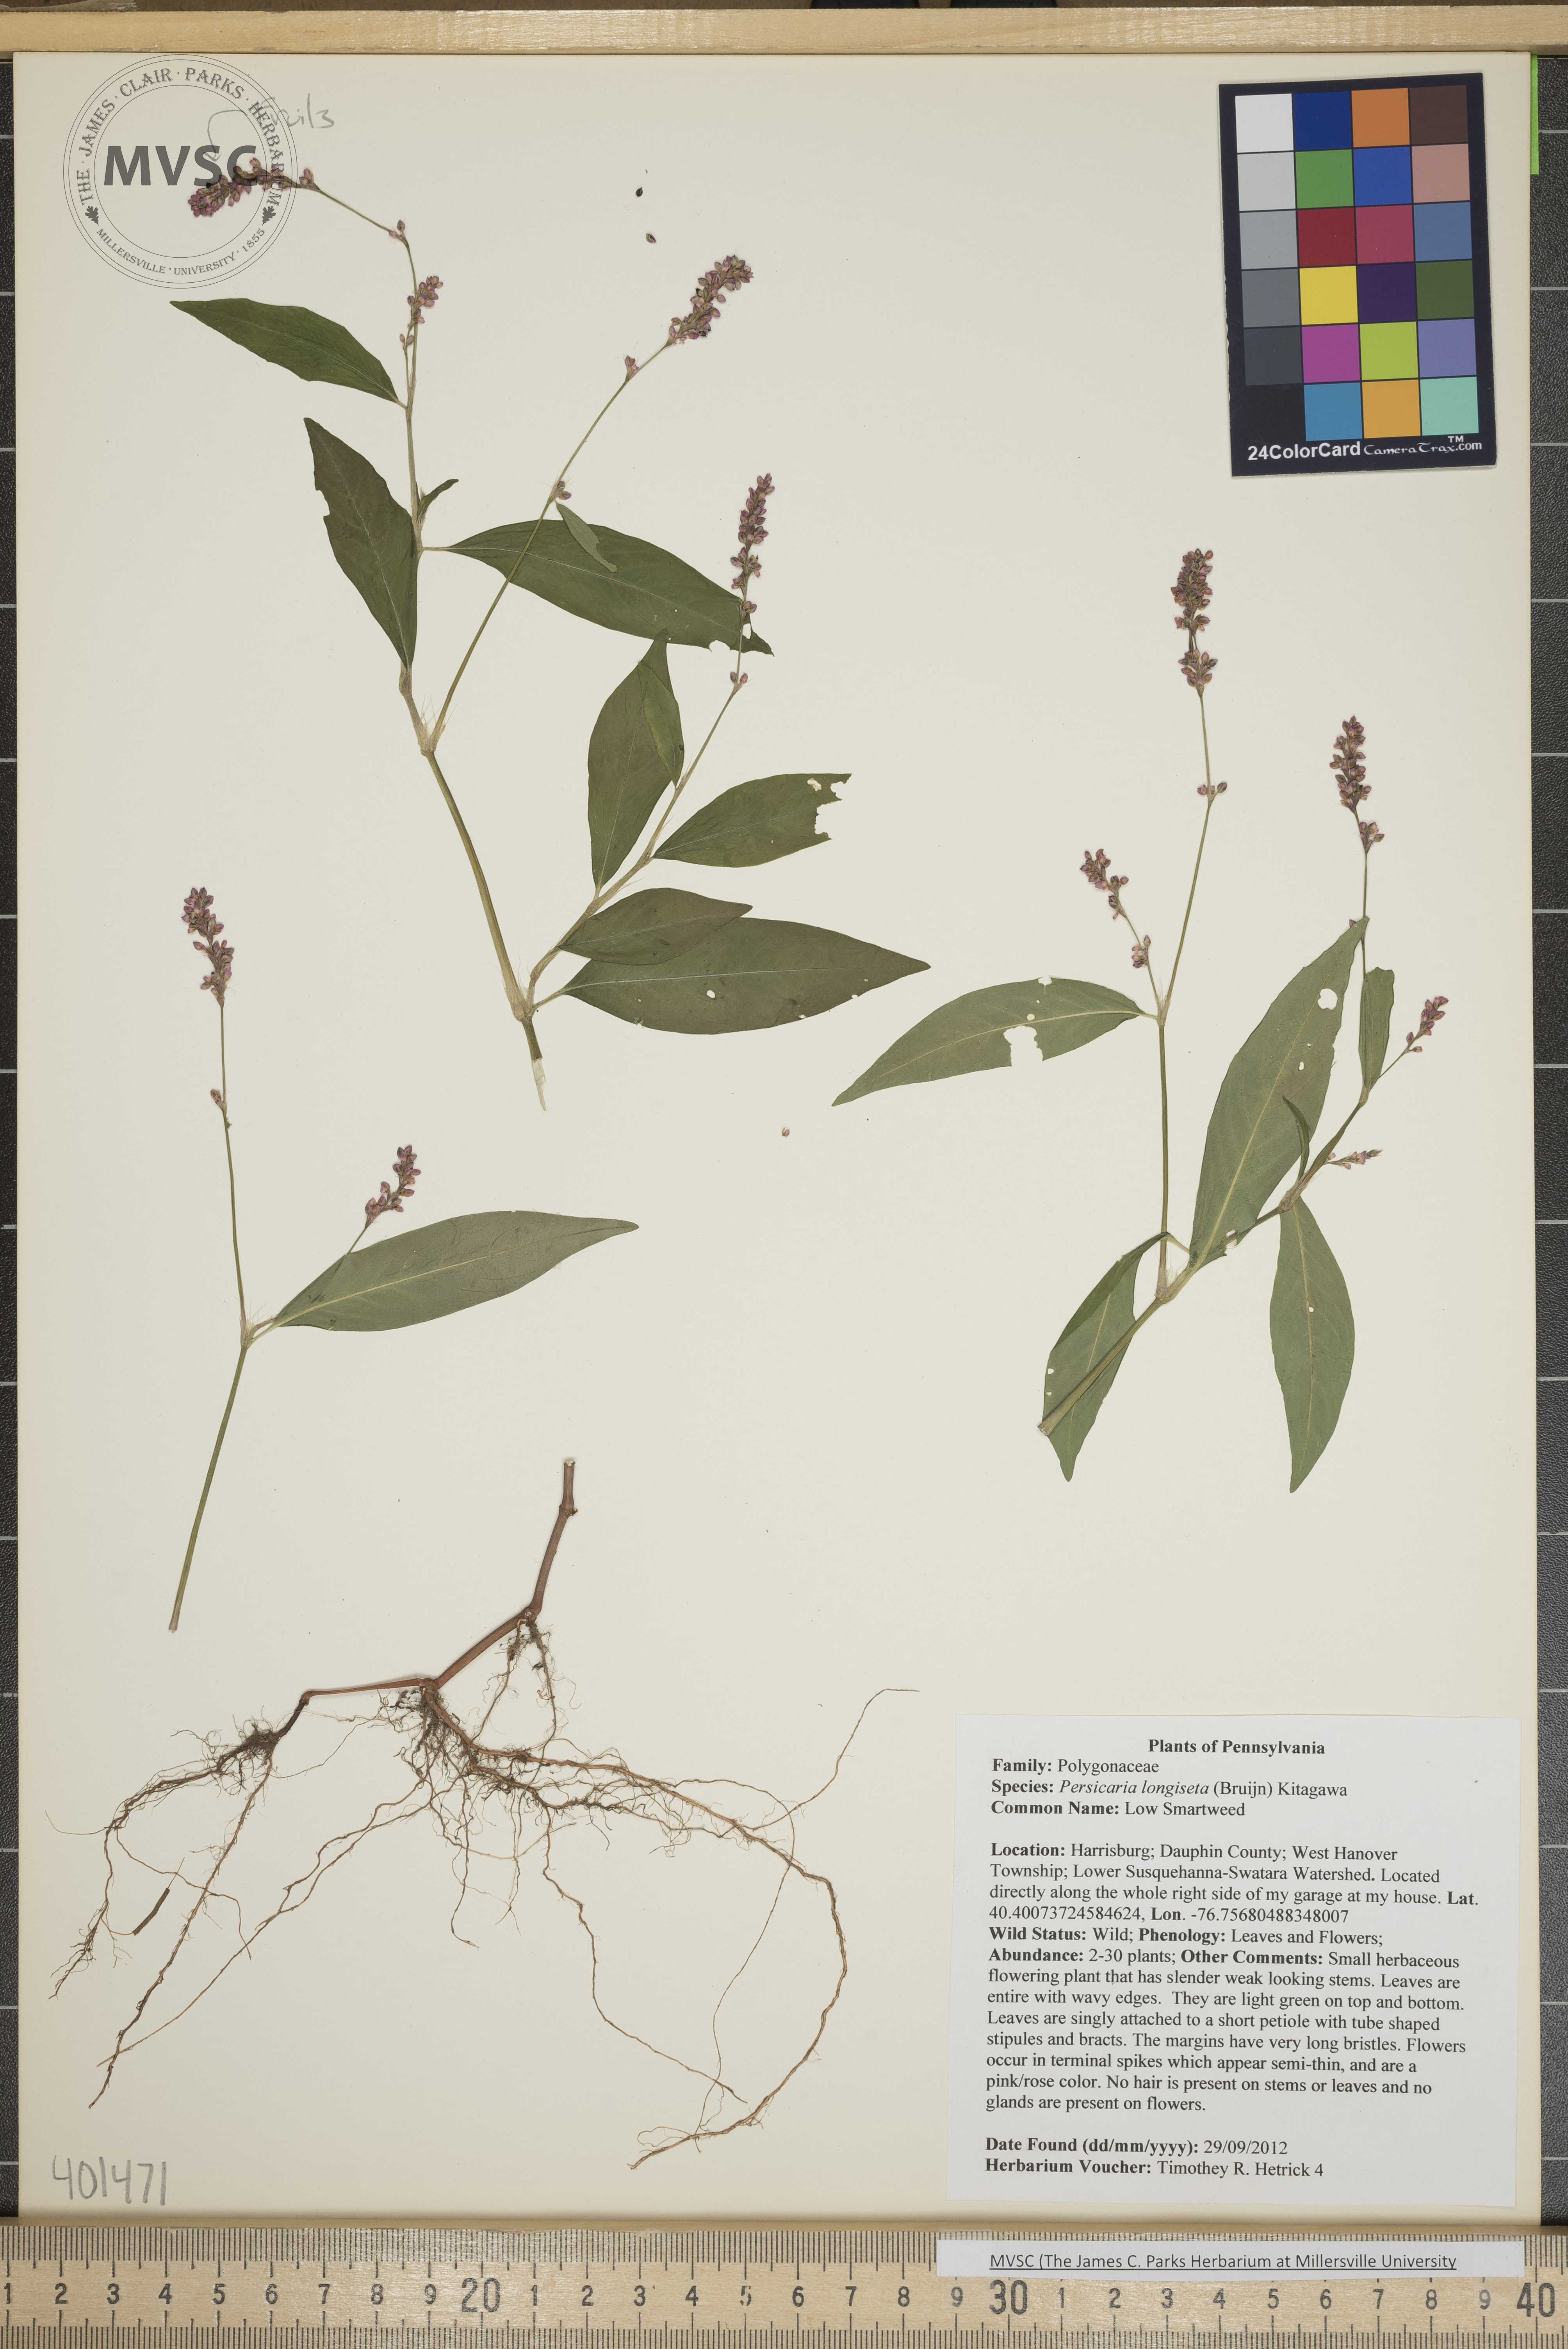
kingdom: Plantae
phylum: Tracheophyta
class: Magnoliopsida
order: Caryophyllales
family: Polygonaceae
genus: Persicaria
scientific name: Persicaria longiseta
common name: Low Smartweed
